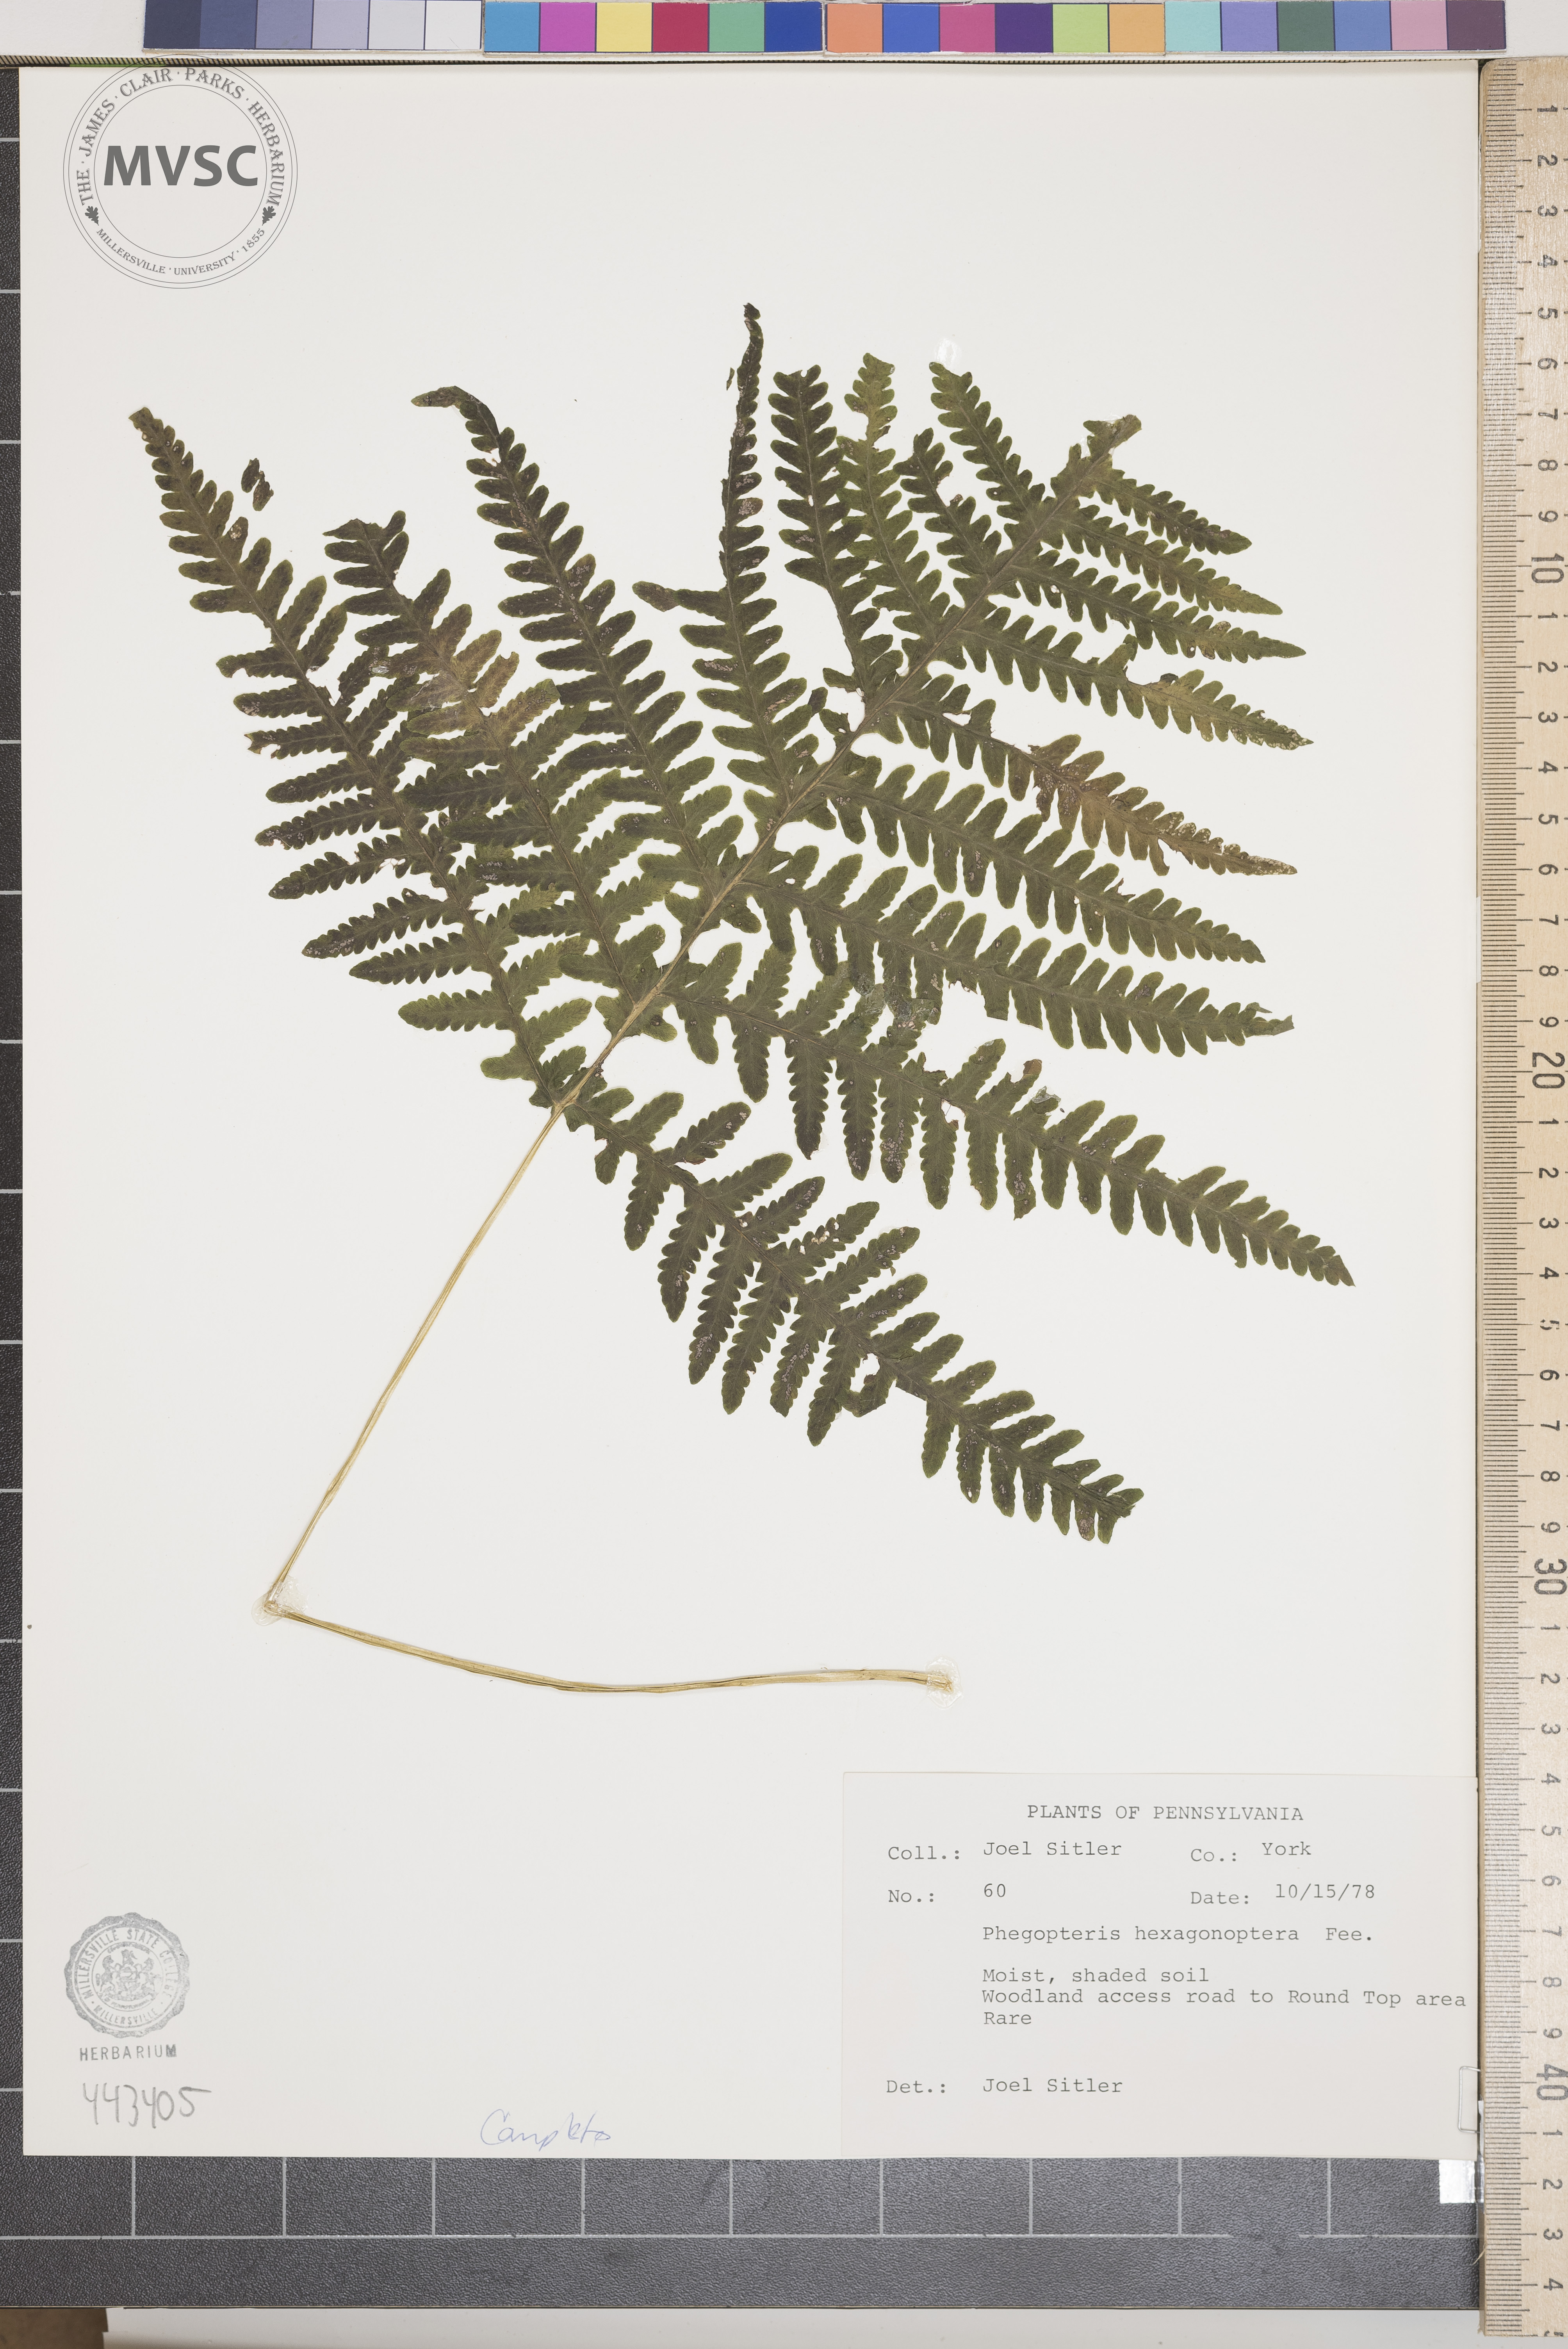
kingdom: Plantae
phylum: Tracheophyta
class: Polypodiopsida
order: Polypodiales
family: Thelypteridaceae
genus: Phegopteris
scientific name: Phegopteris hexagonoptera
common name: Broad beech fern
